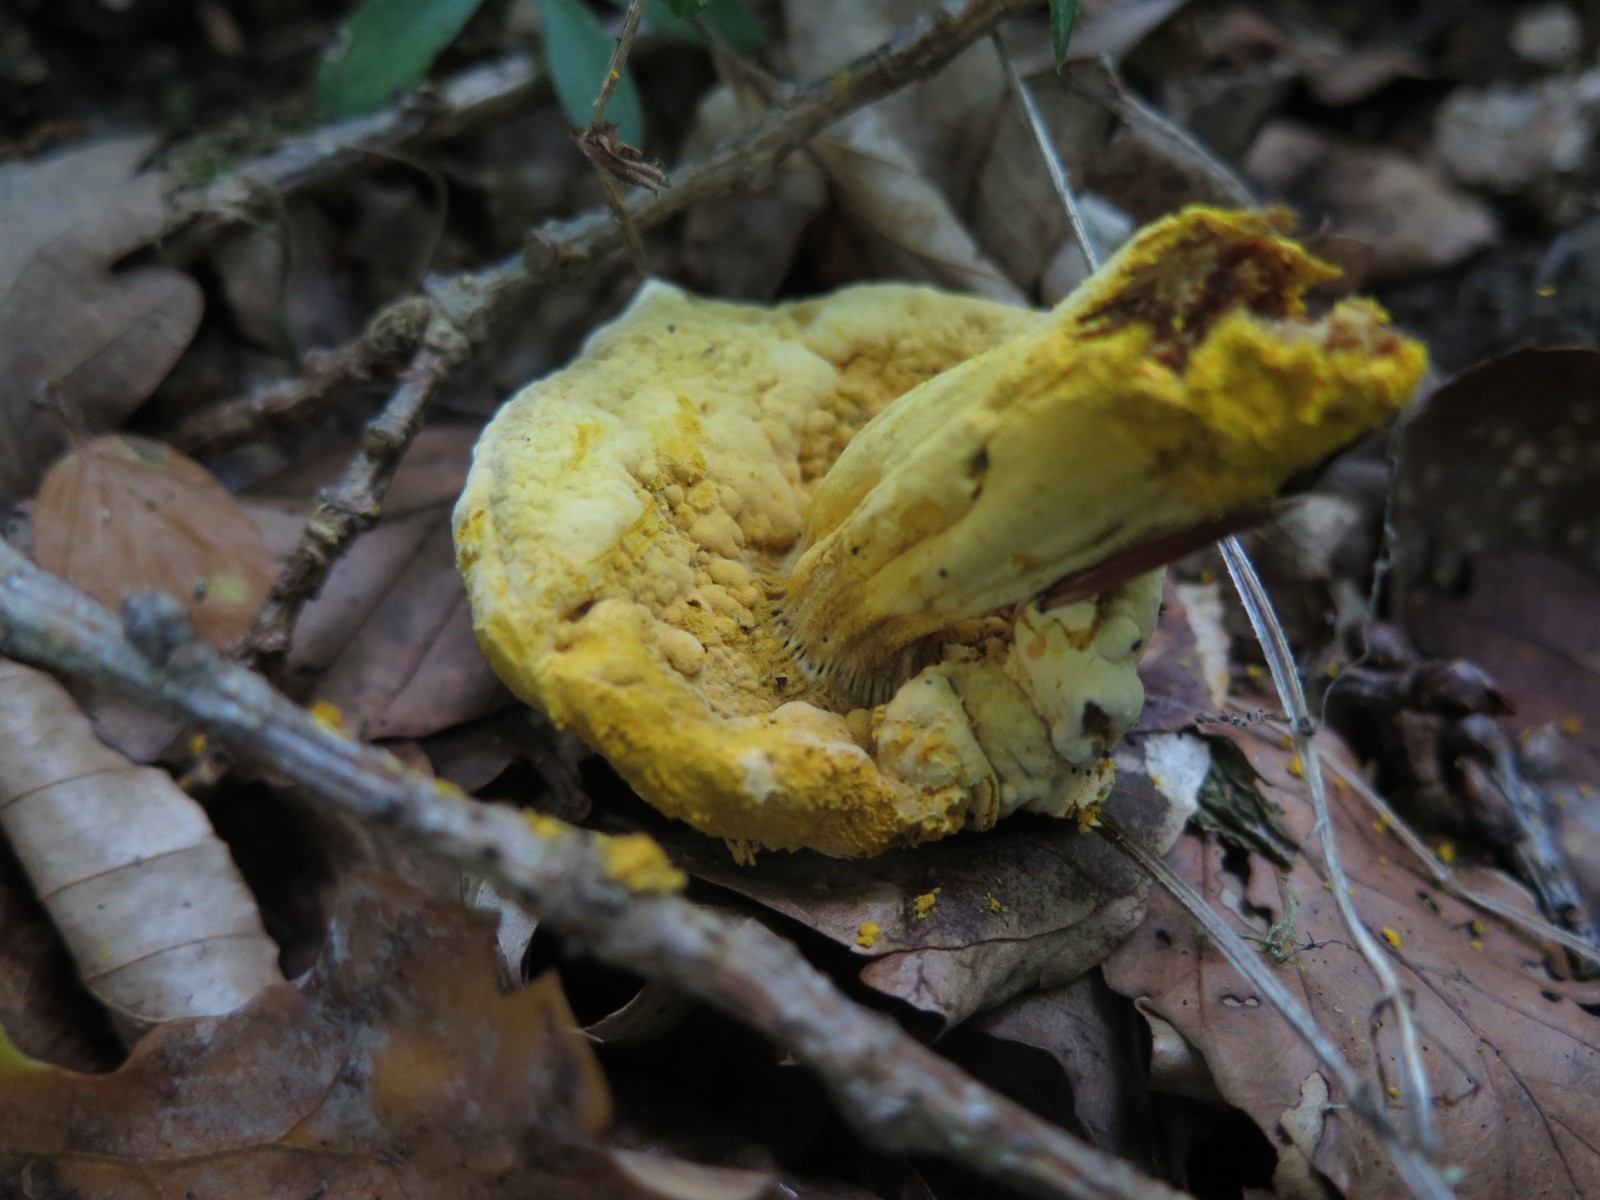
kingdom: Fungi
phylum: Ascomycota
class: Sordariomycetes
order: Hypocreales
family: Hypocreaceae
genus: Hypomyces
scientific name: Hypomyces
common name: snylteskorpe
